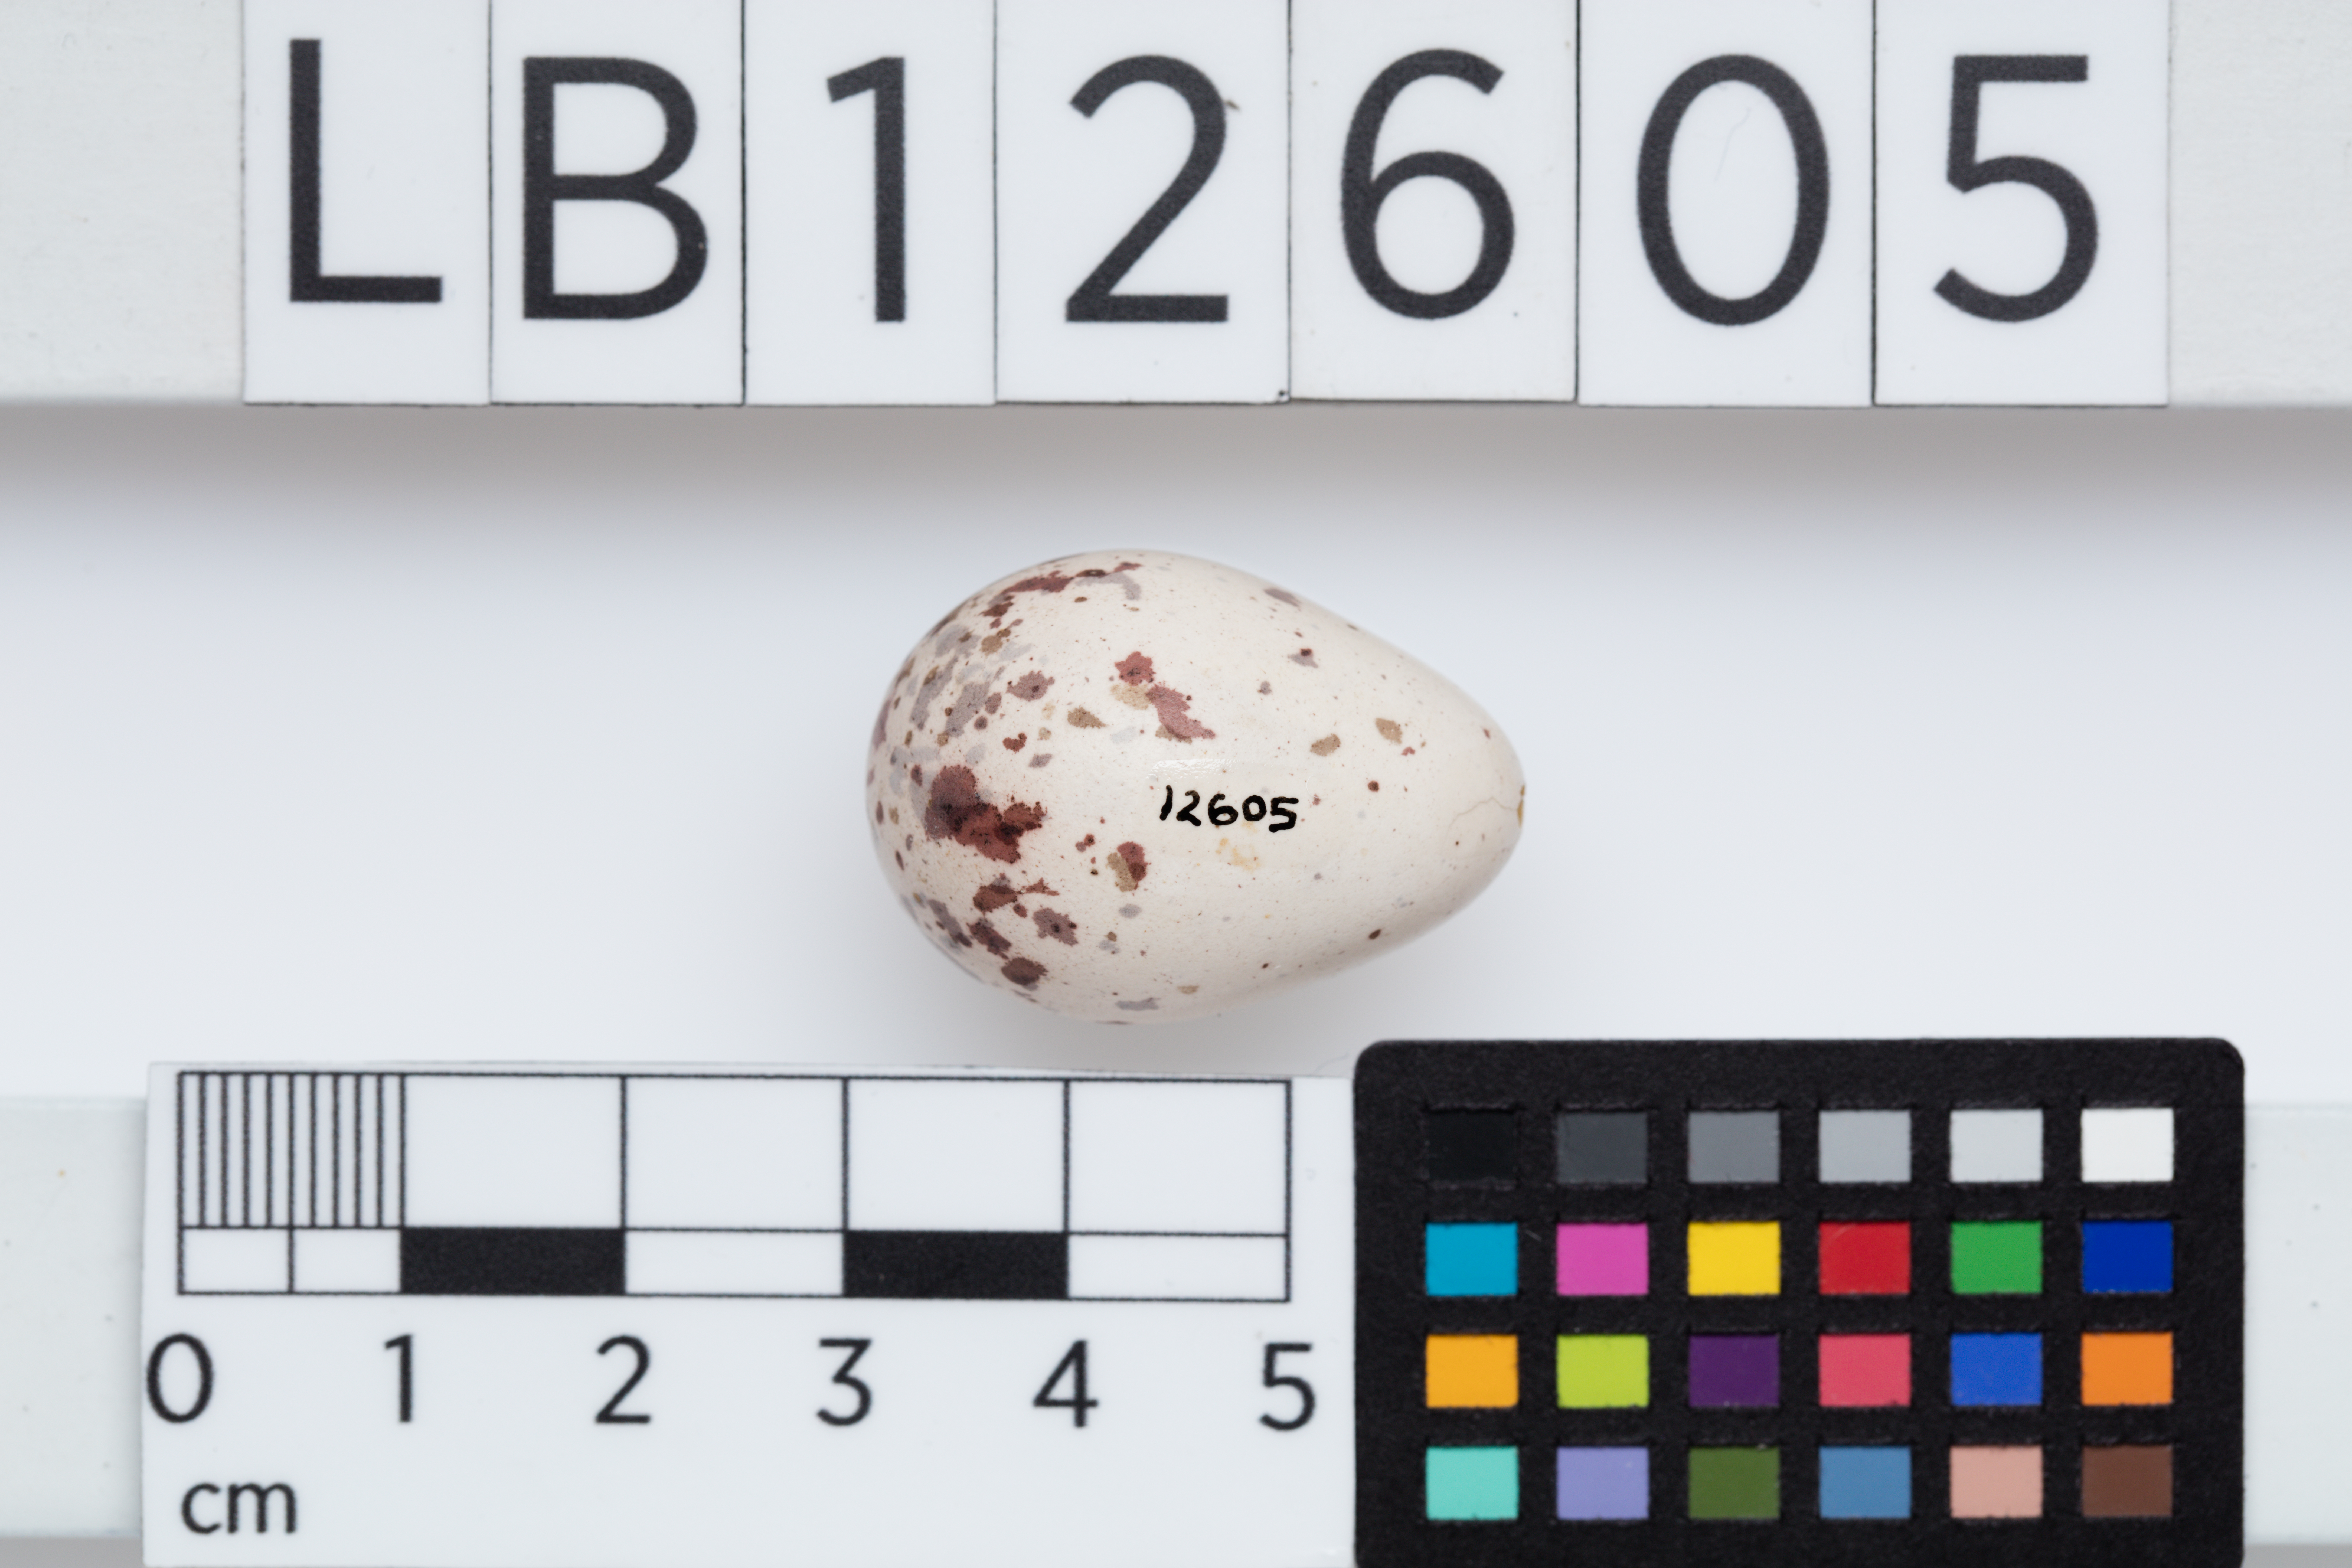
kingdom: Animalia
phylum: Chordata
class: Aves
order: Passeriformes
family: Pachycephalidae
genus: Colluricincla
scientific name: Colluricincla harmonica
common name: Grey shrikethrush
